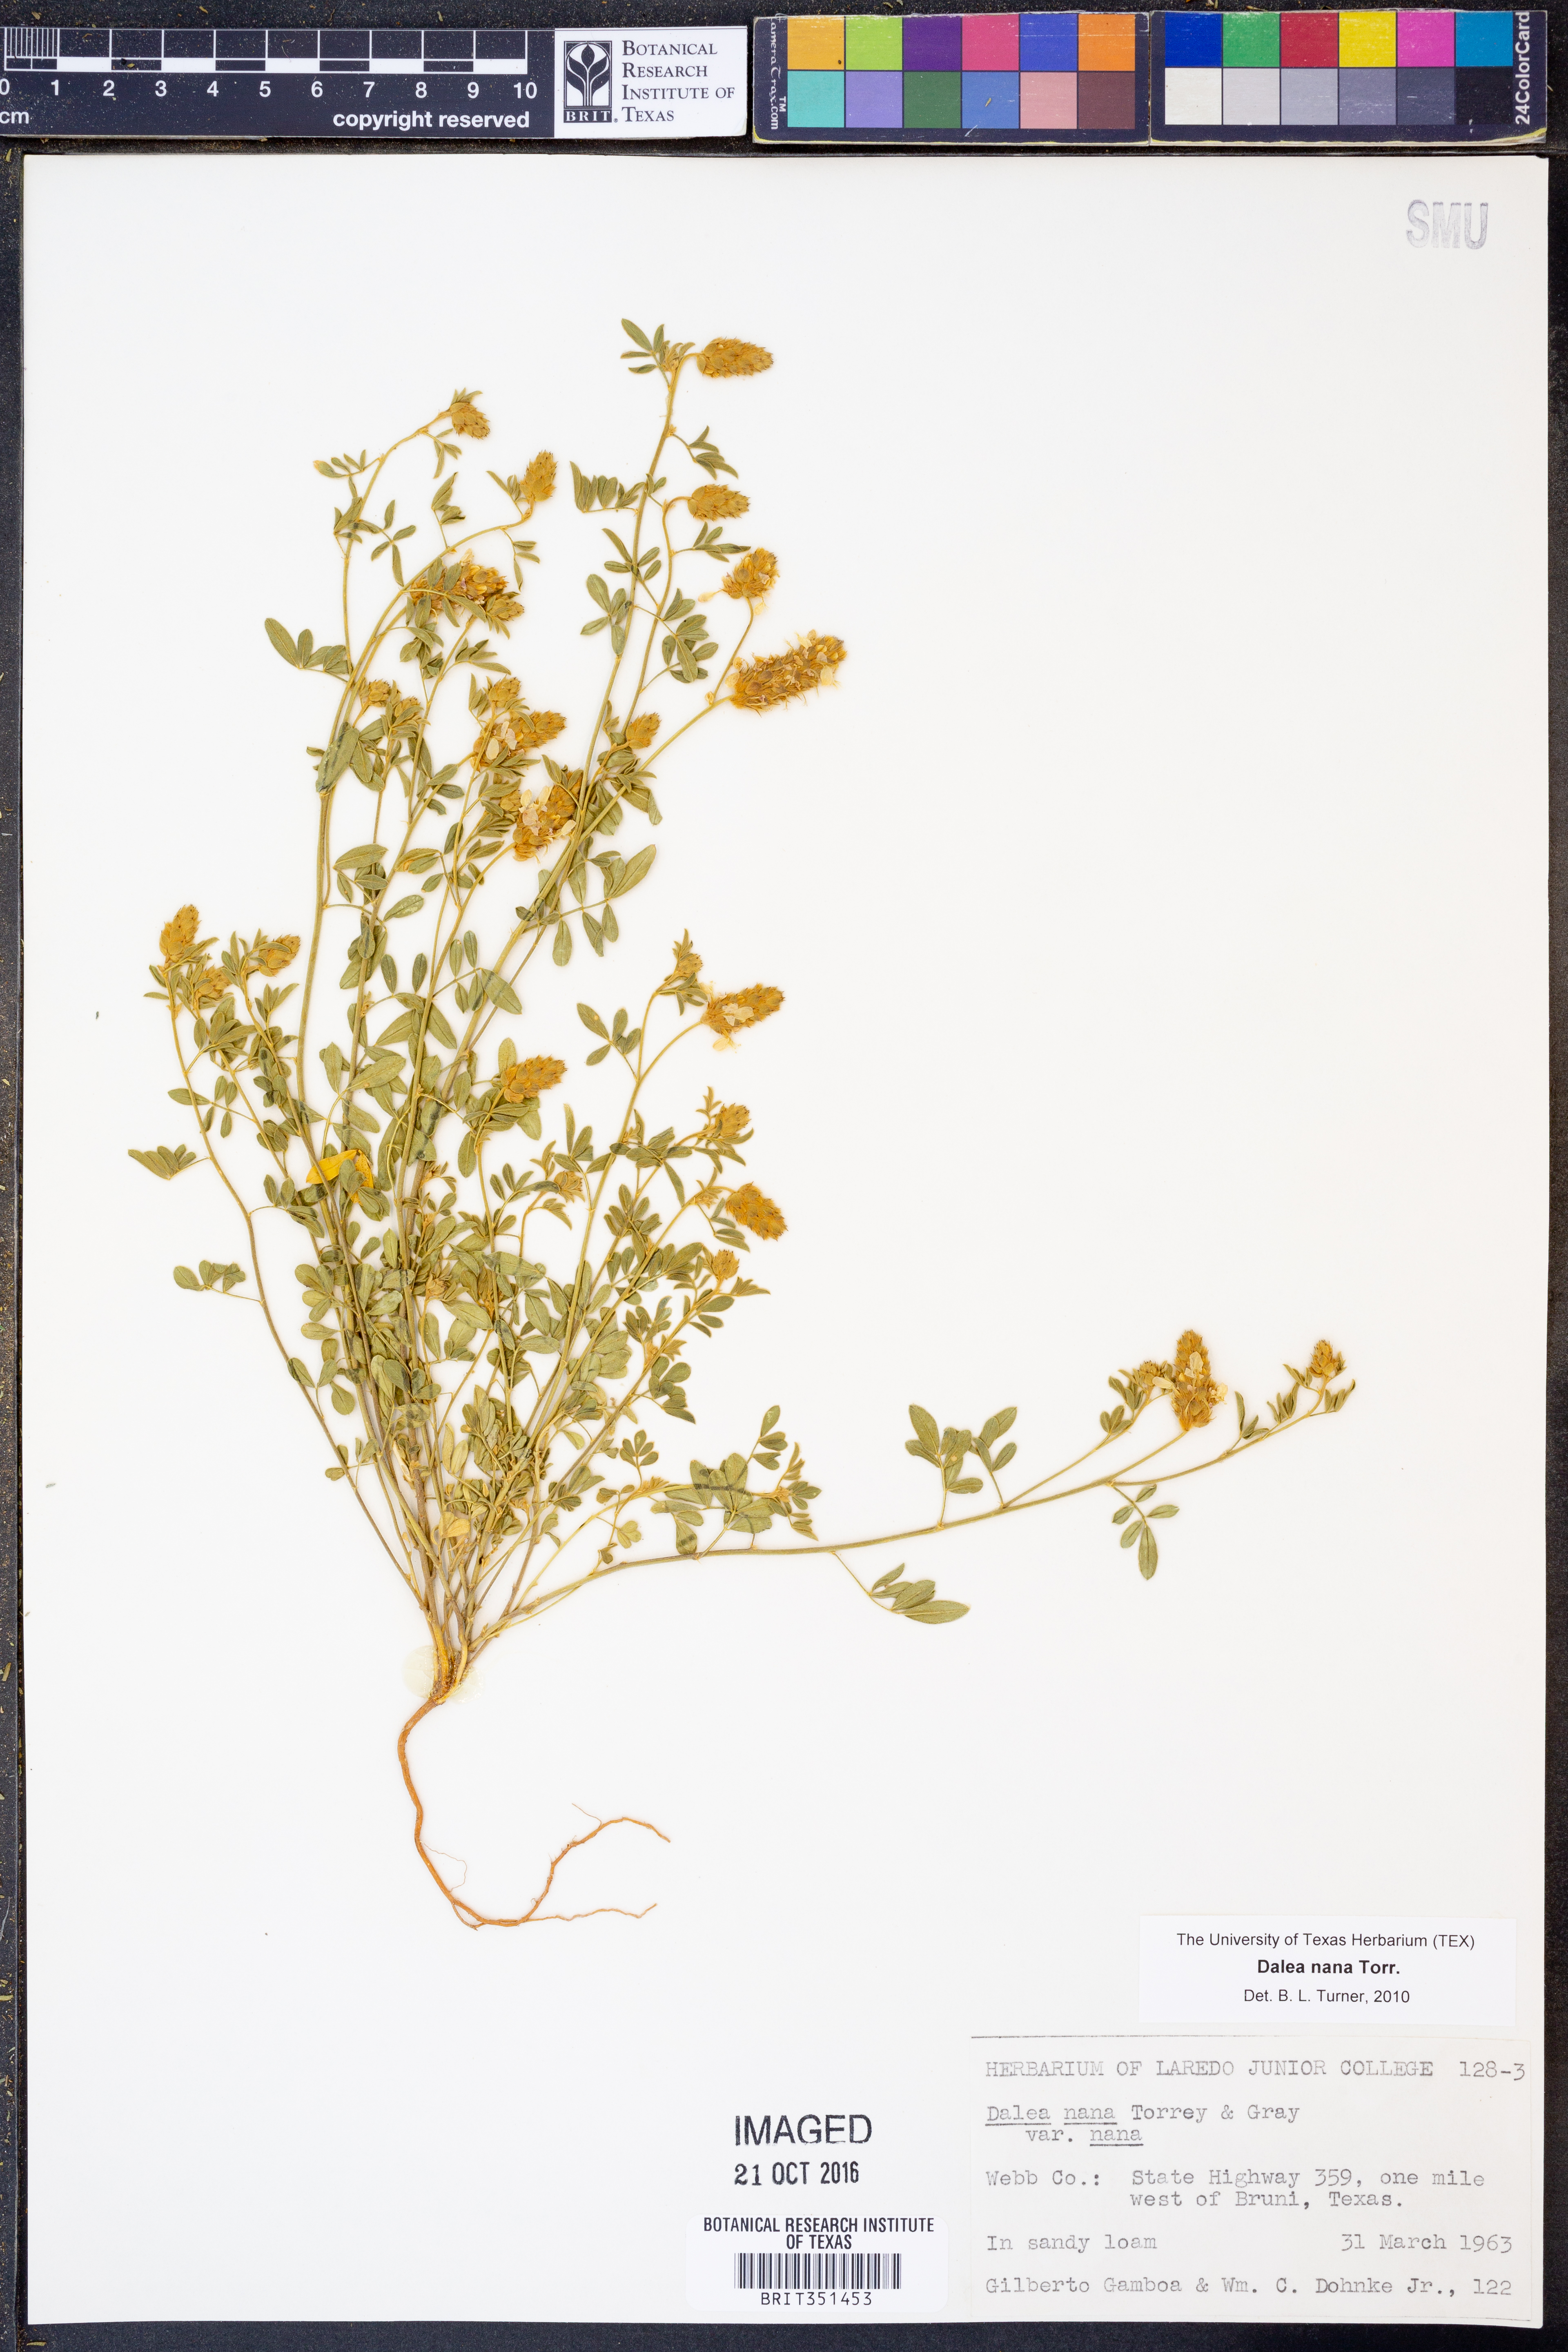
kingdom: Plantae
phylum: Tracheophyta
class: Magnoliopsida
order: Fabales
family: Fabaceae
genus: Dalea
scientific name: Dalea nana
